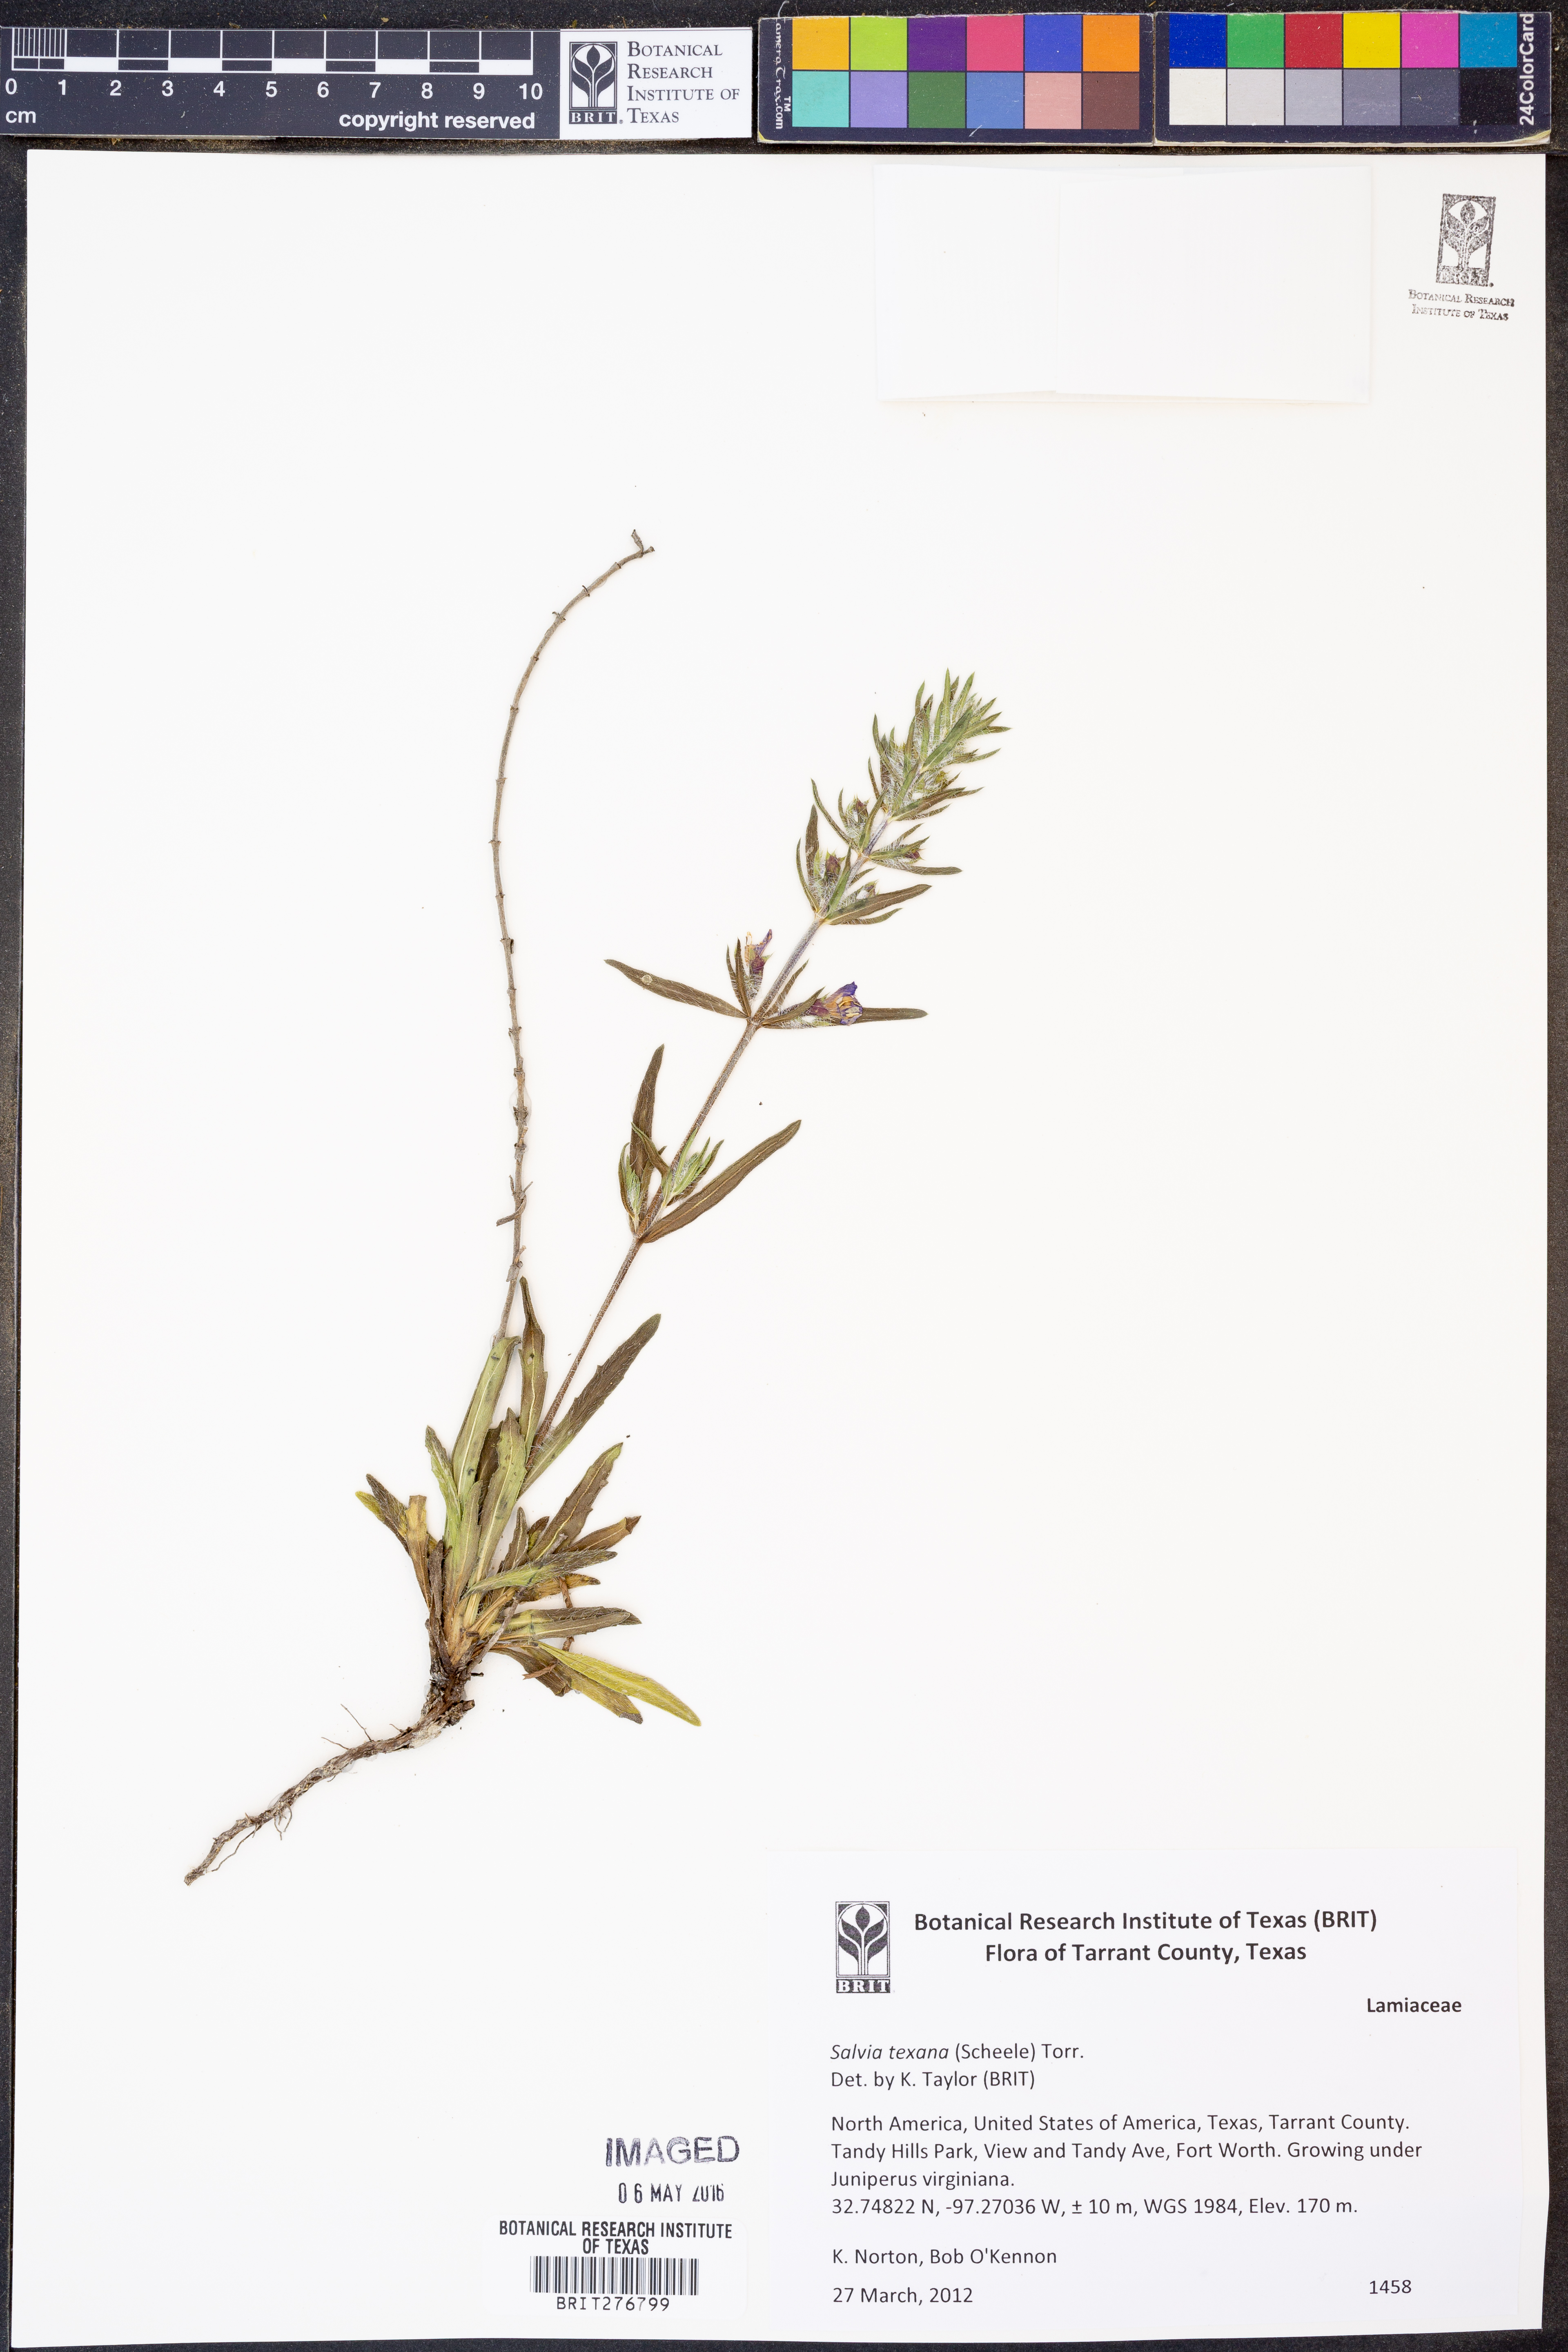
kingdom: Plantae
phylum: Tracheophyta
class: Magnoliopsida
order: Lamiales
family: Lamiaceae
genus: Salvia
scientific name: Salvia texana
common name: Texas sage
